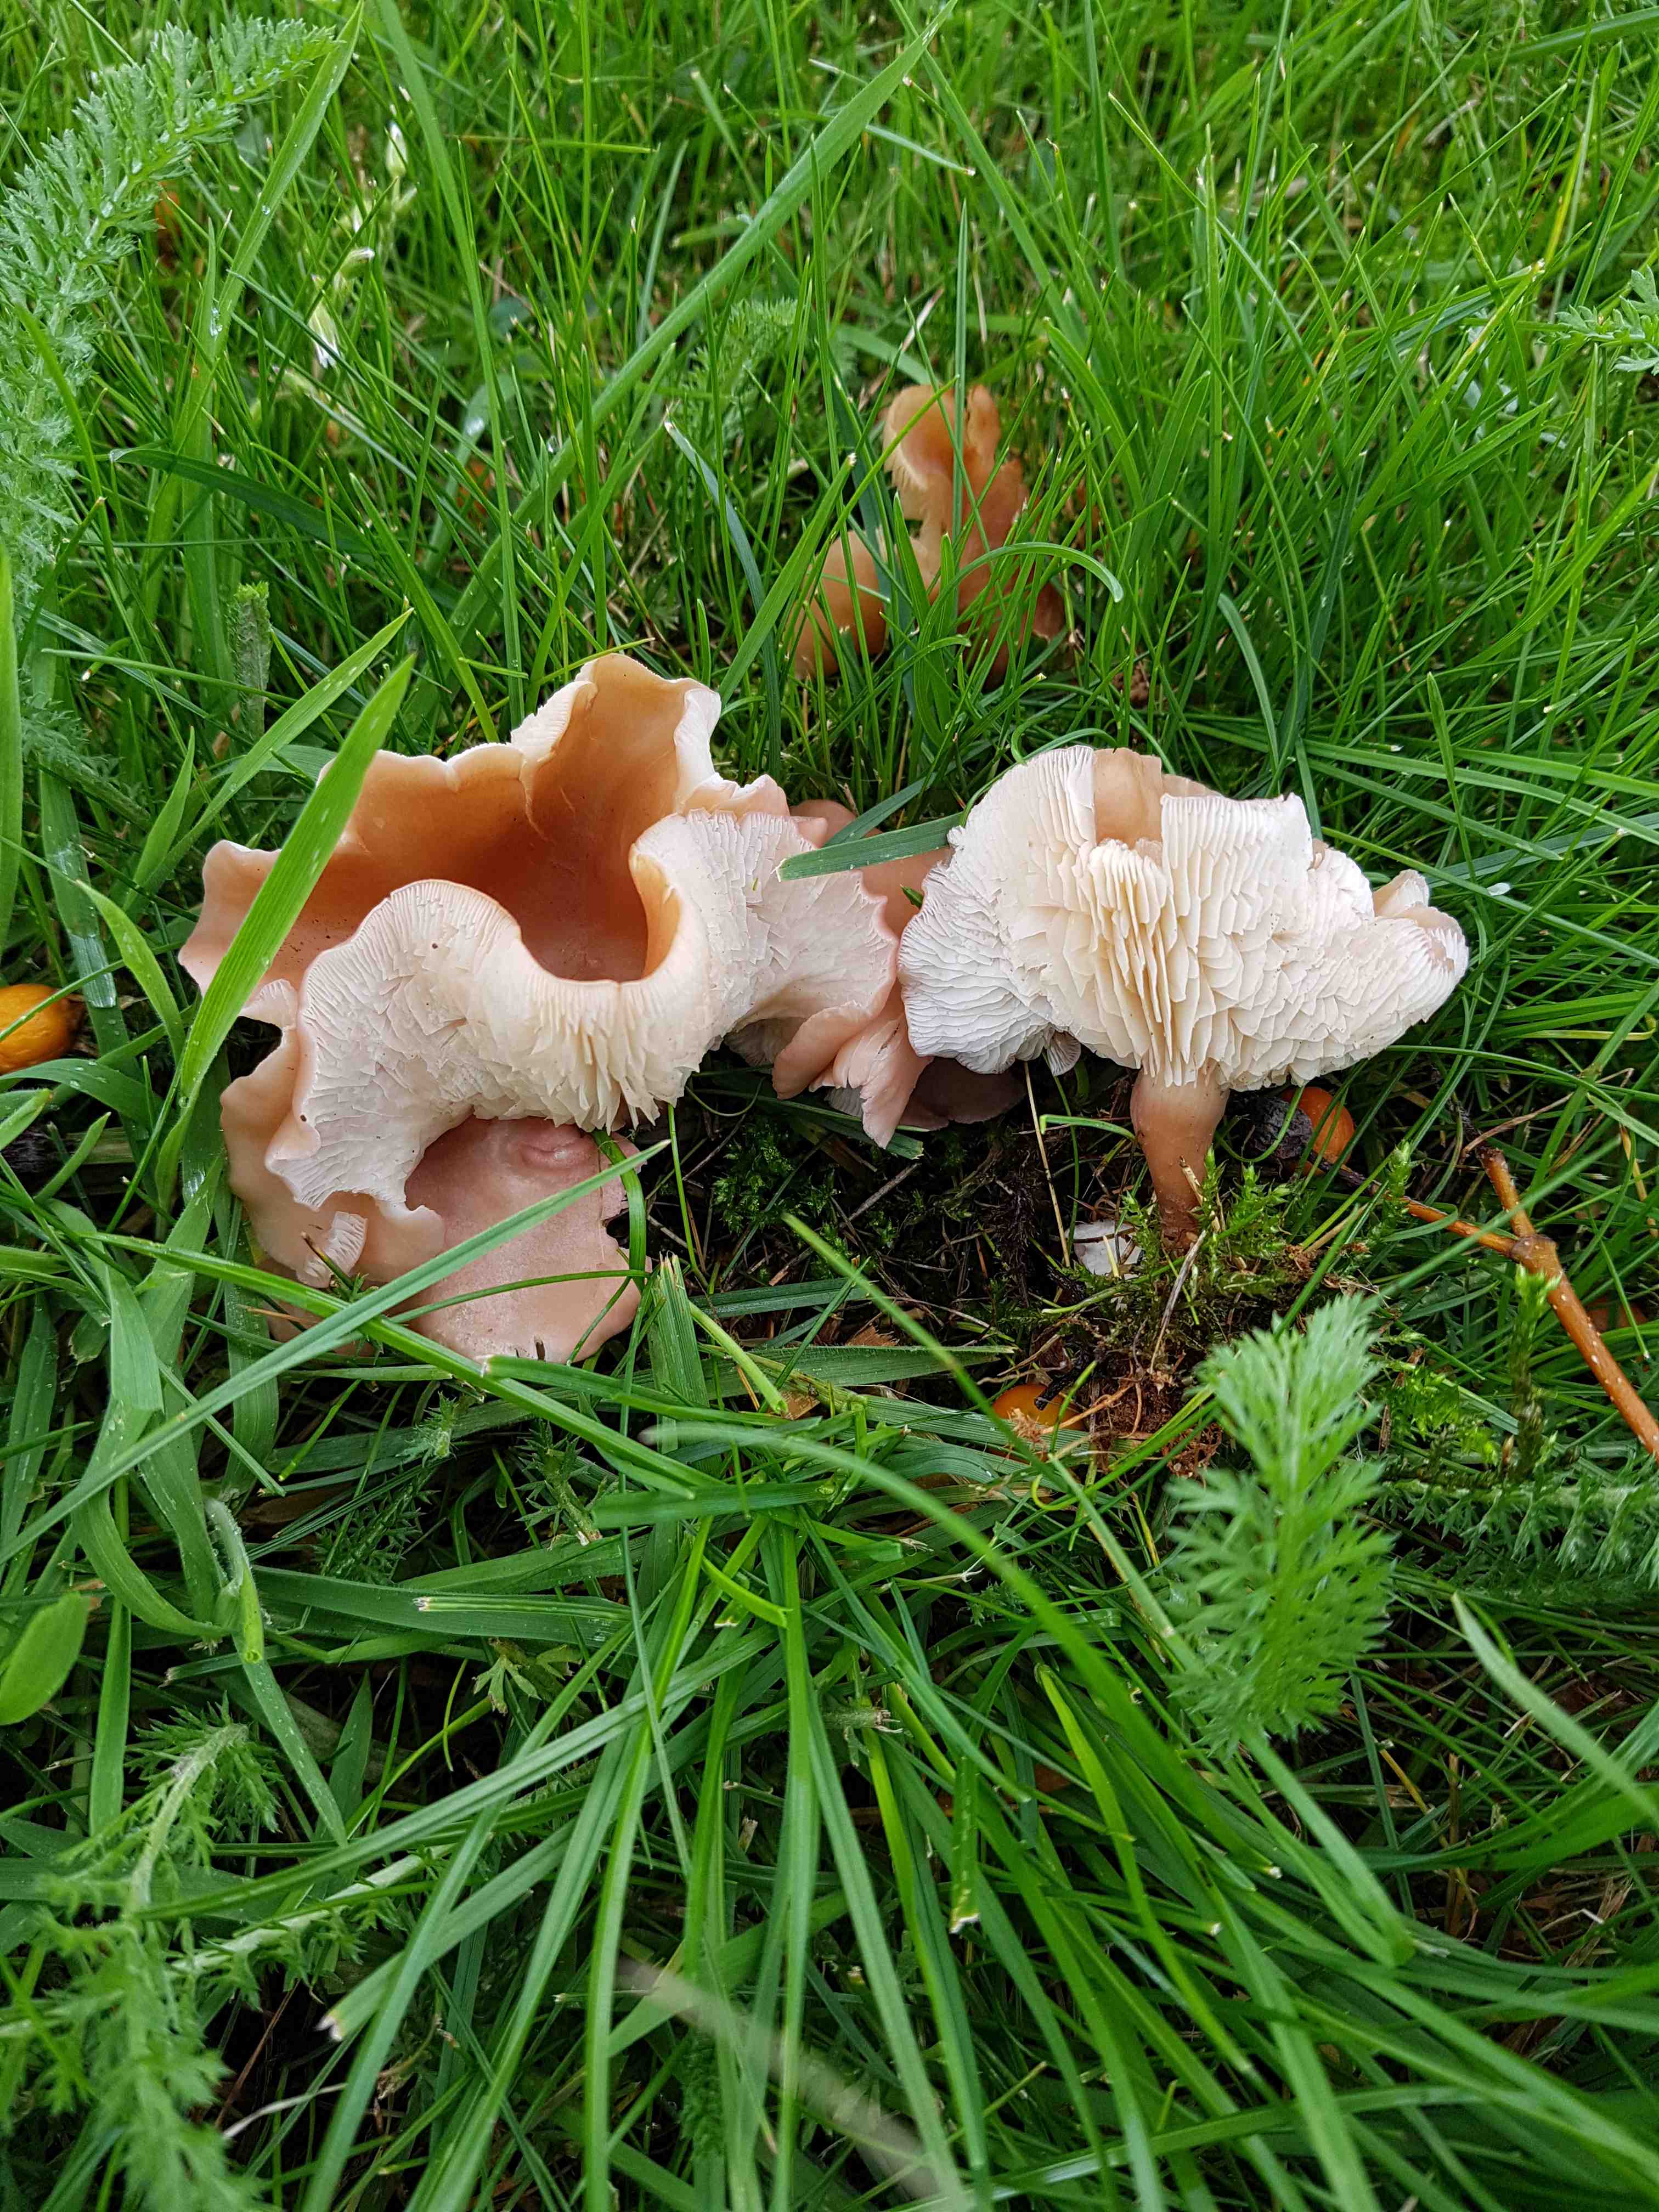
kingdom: Fungi
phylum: Basidiomycota
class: Agaricomycetes
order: Agaricales
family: Lyophyllaceae
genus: Calocybe
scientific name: Calocybe carnea
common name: rosa fagerhat
